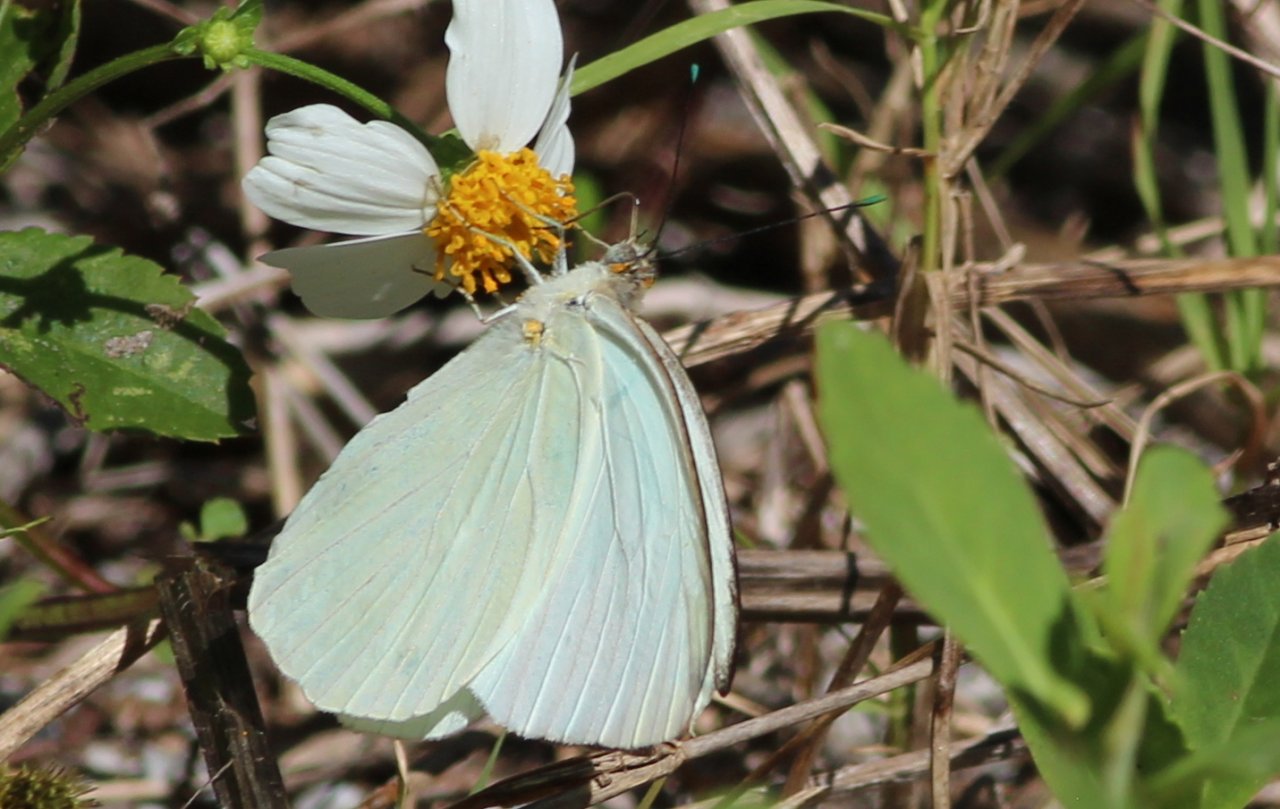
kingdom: Animalia
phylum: Arthropoda
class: Insecta
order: Lepidoptera
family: Pieridae
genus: Ascia
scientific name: Ascia monuste
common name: Great Southern White
